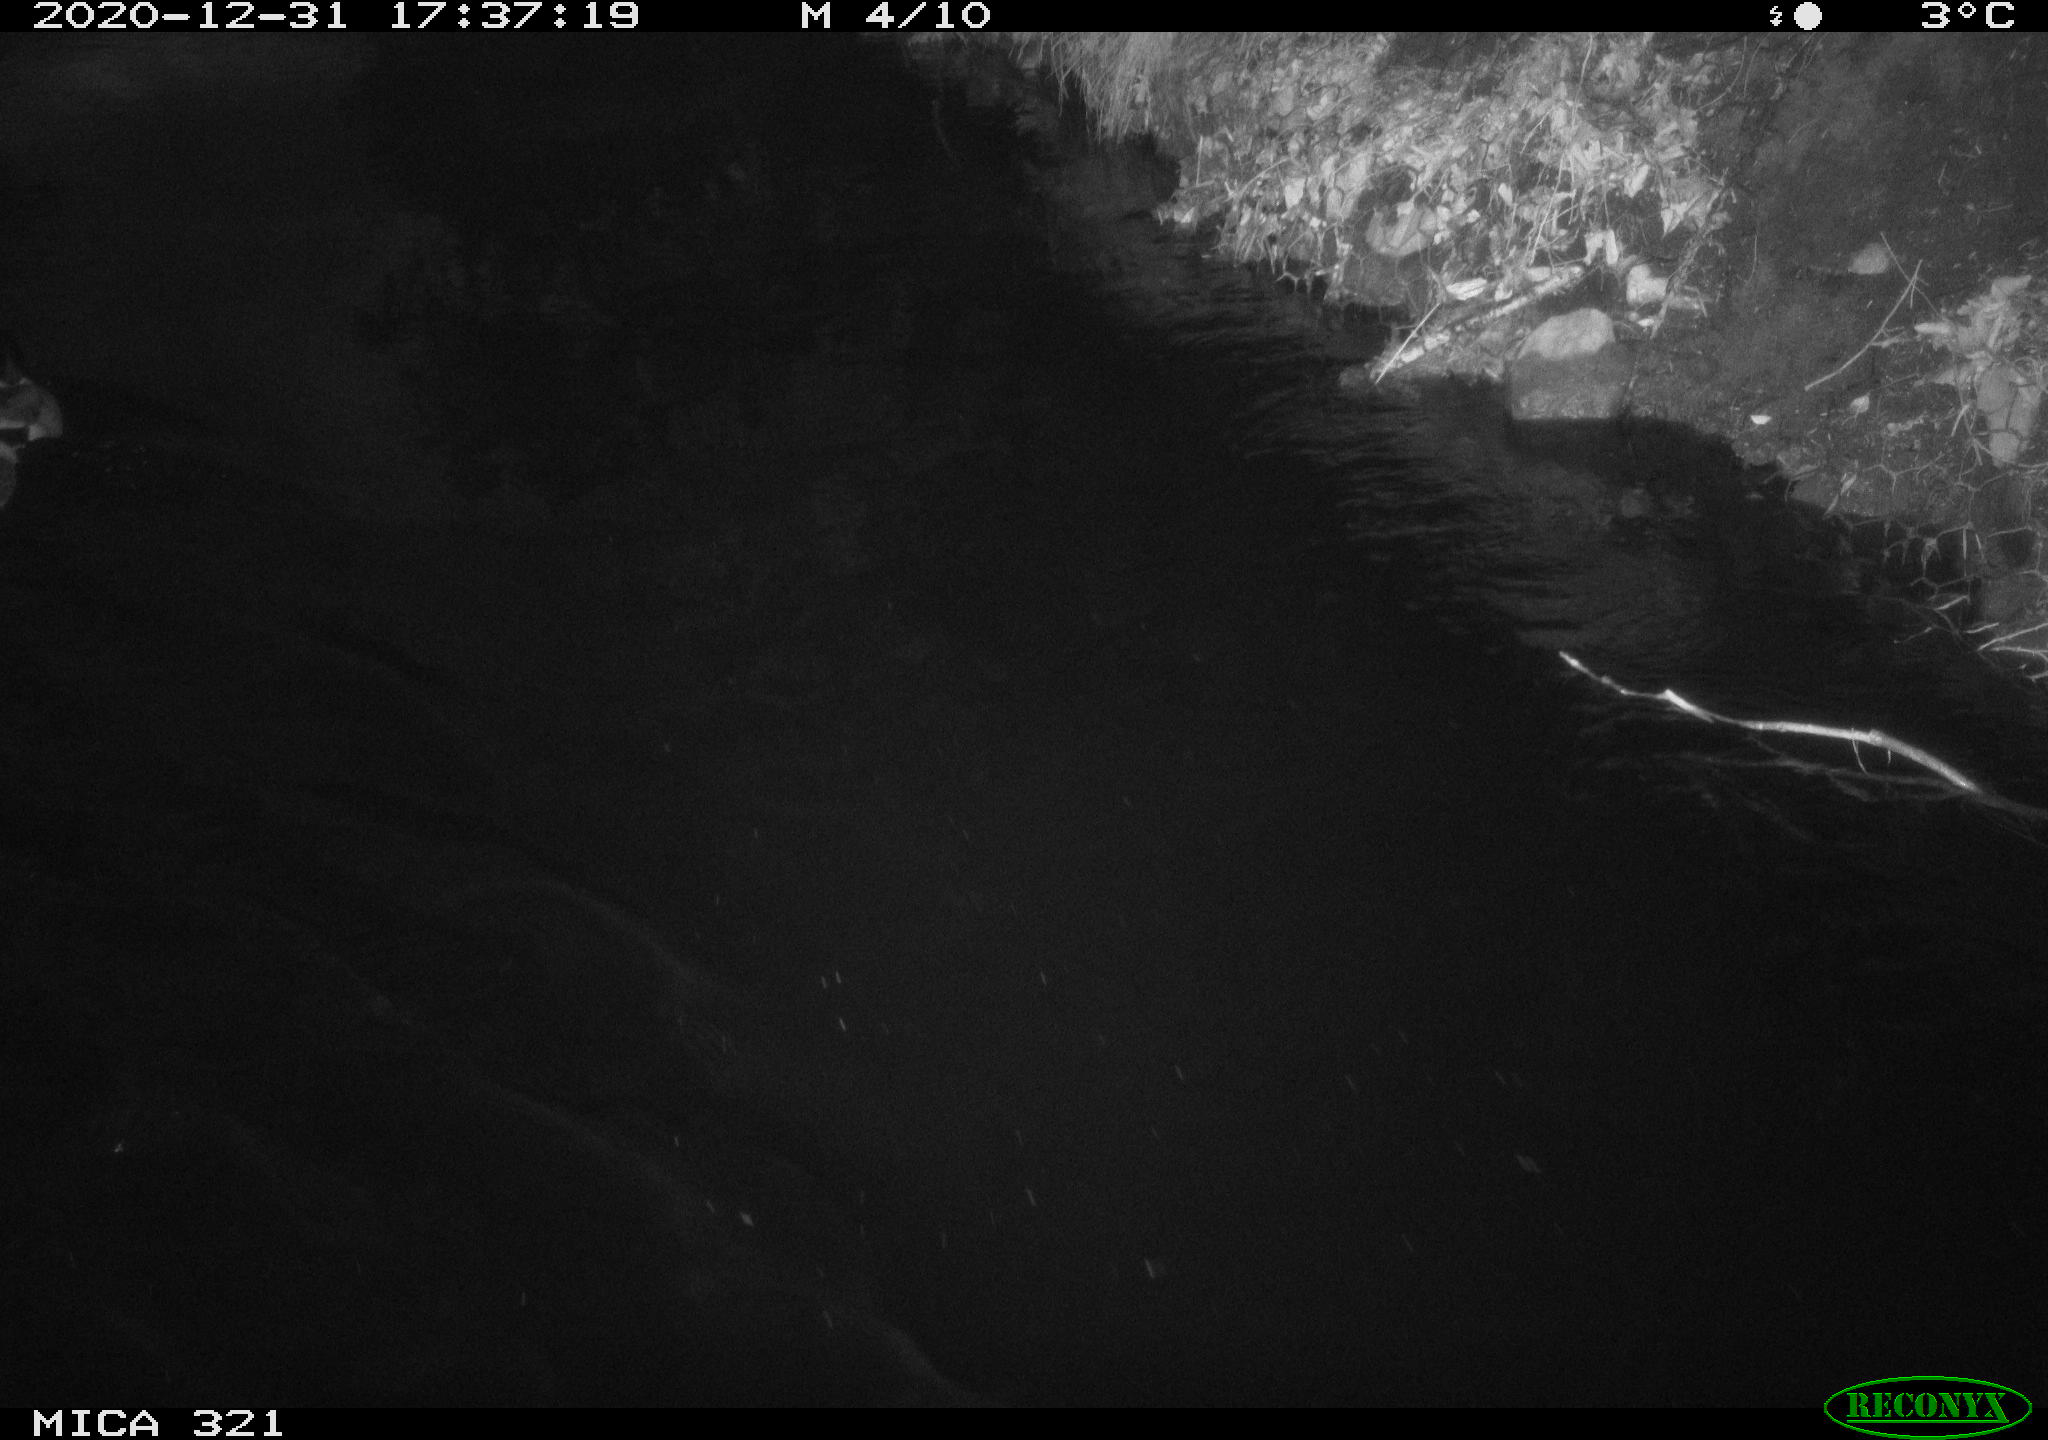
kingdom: Animalia
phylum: Chordata
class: Aves
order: Anseriformes
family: Anatidae
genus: Anas
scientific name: Anas platyrhynchos
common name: Mallard
